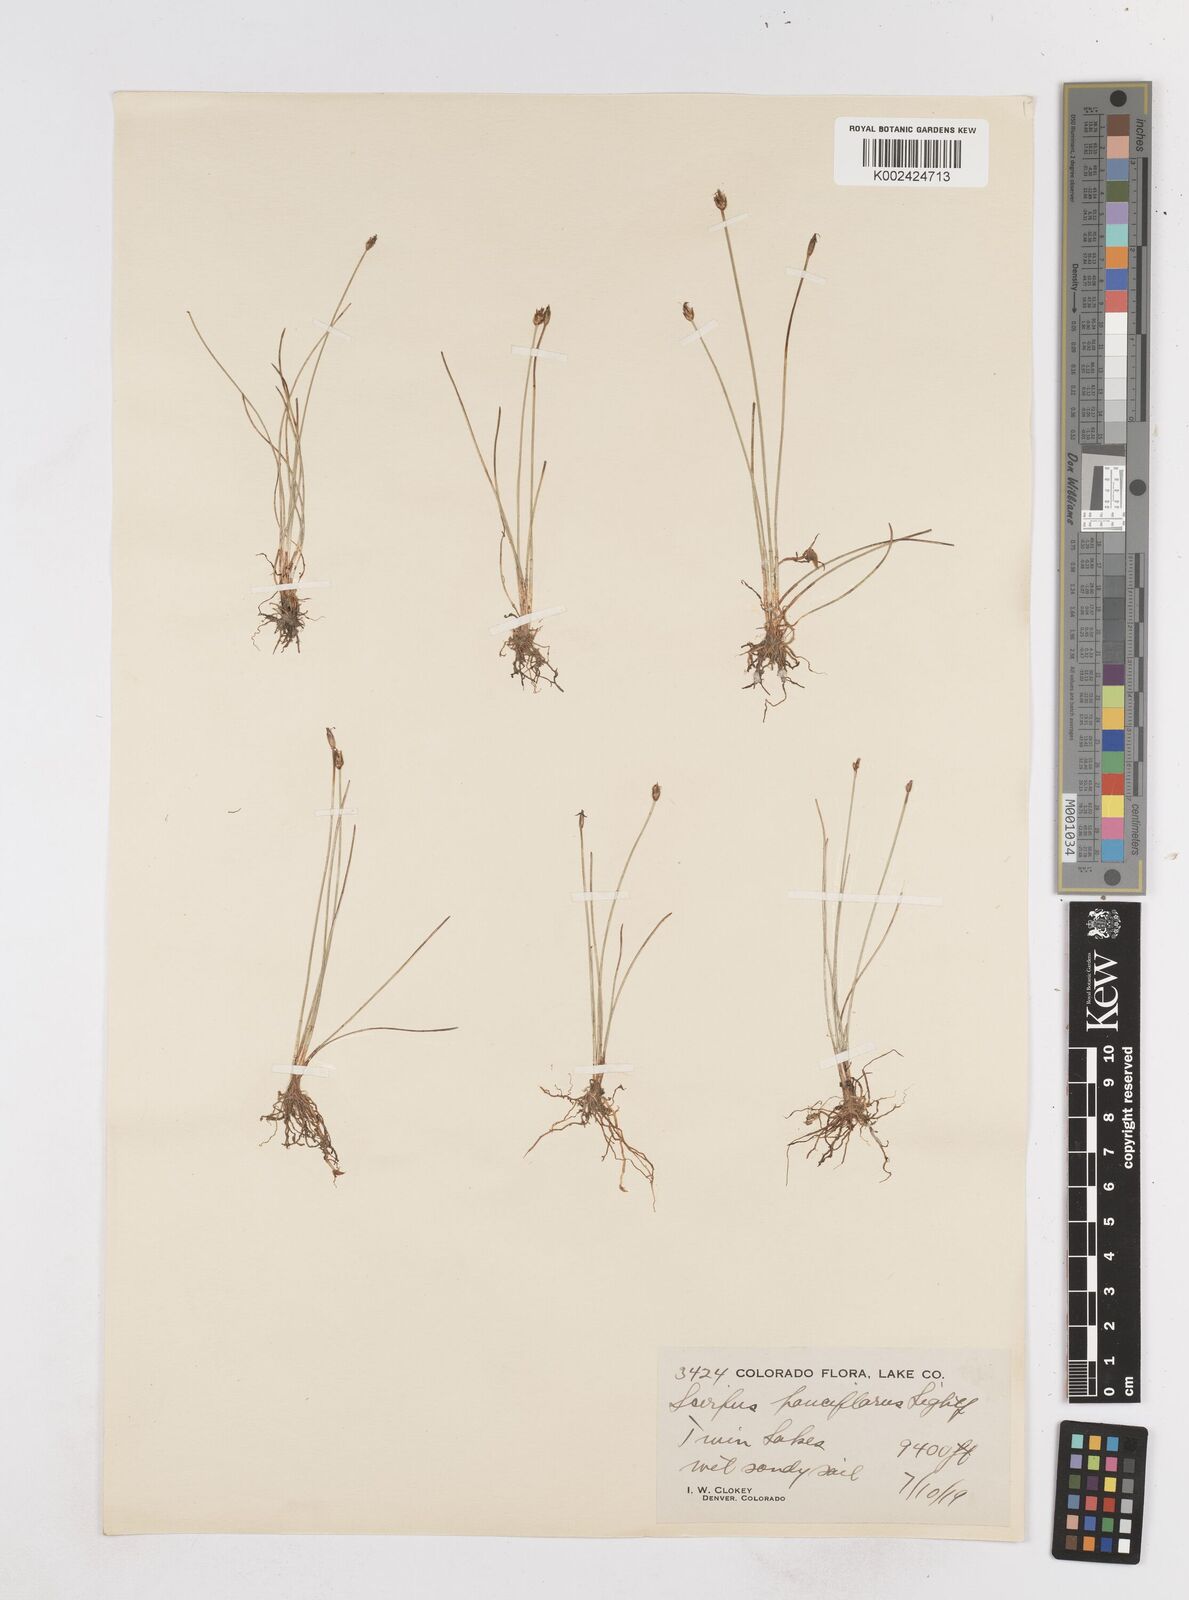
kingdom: Plantae
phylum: Tracheophyta
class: Liliopsida
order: Poales
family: Cyperaceae
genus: Eleocharis
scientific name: Eleocharis quinqueflora
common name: Few-flowered spike-rush
